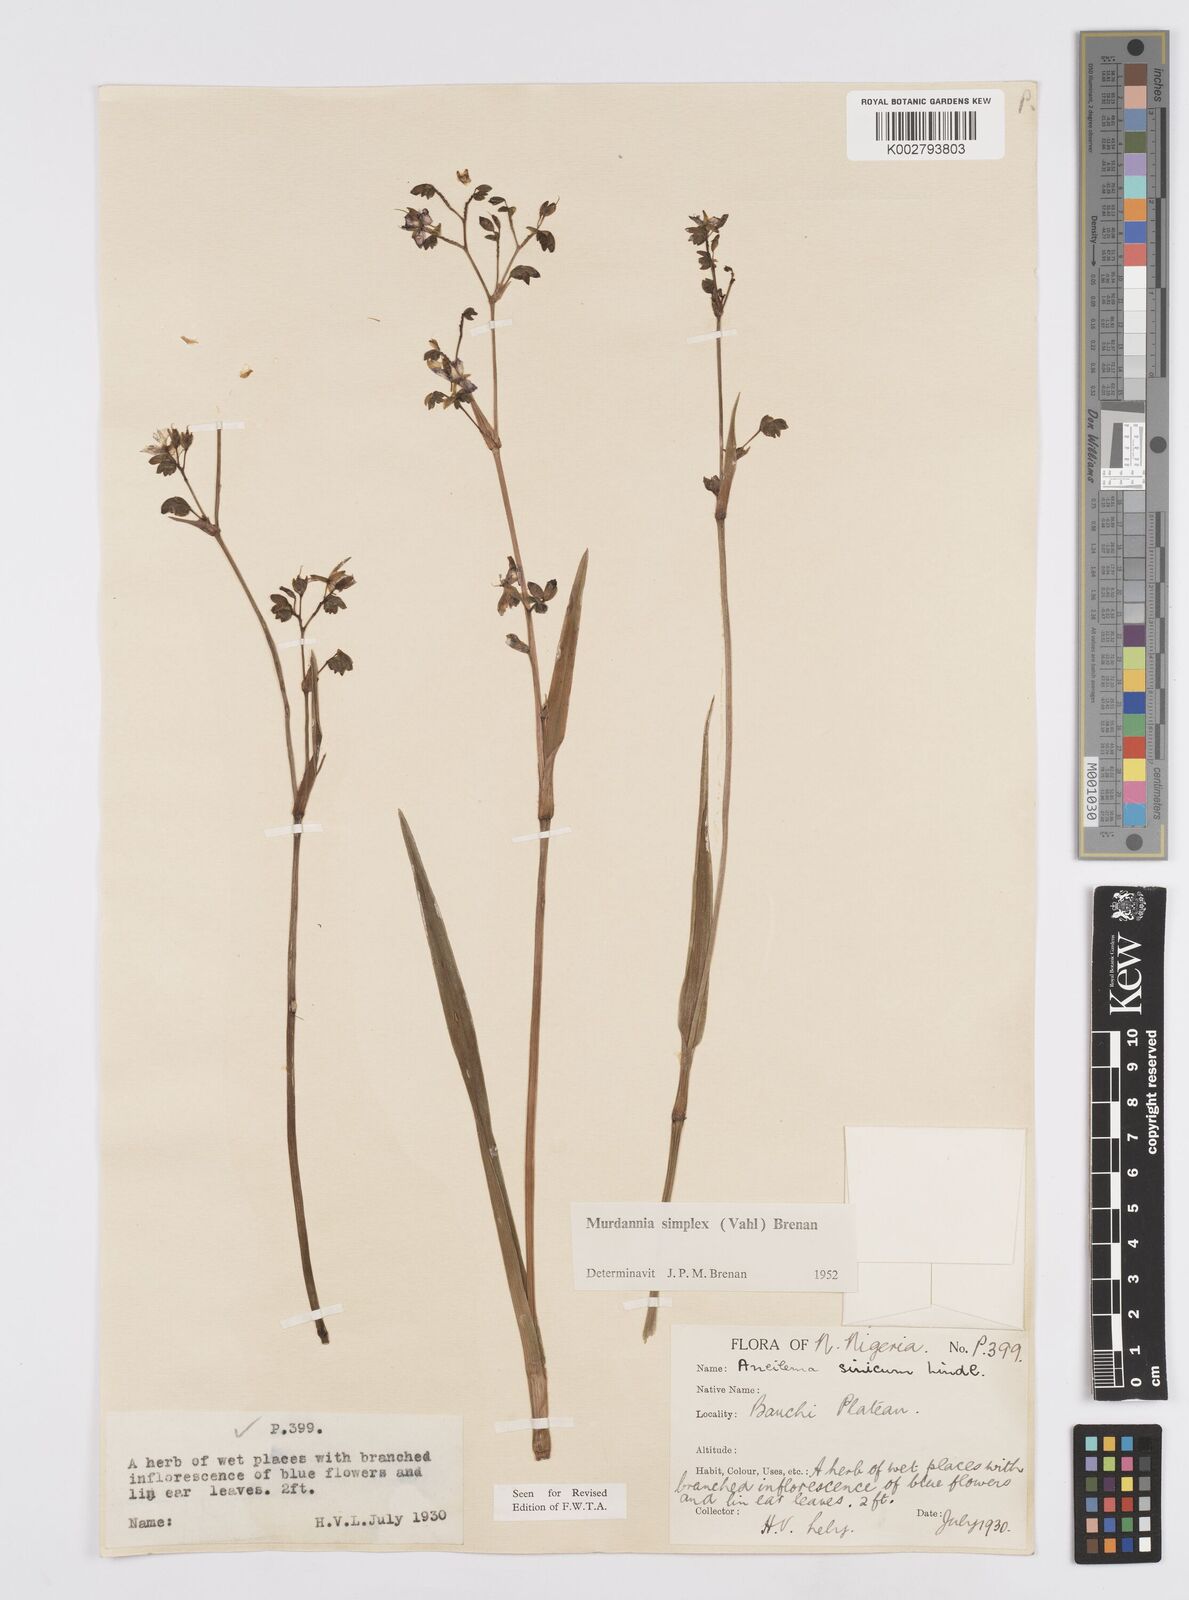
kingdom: Plantae
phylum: Tracheophyta
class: Liliopsida
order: Commelinales
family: Commelinaceae
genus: Murdannia
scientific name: Murdannia simplex
